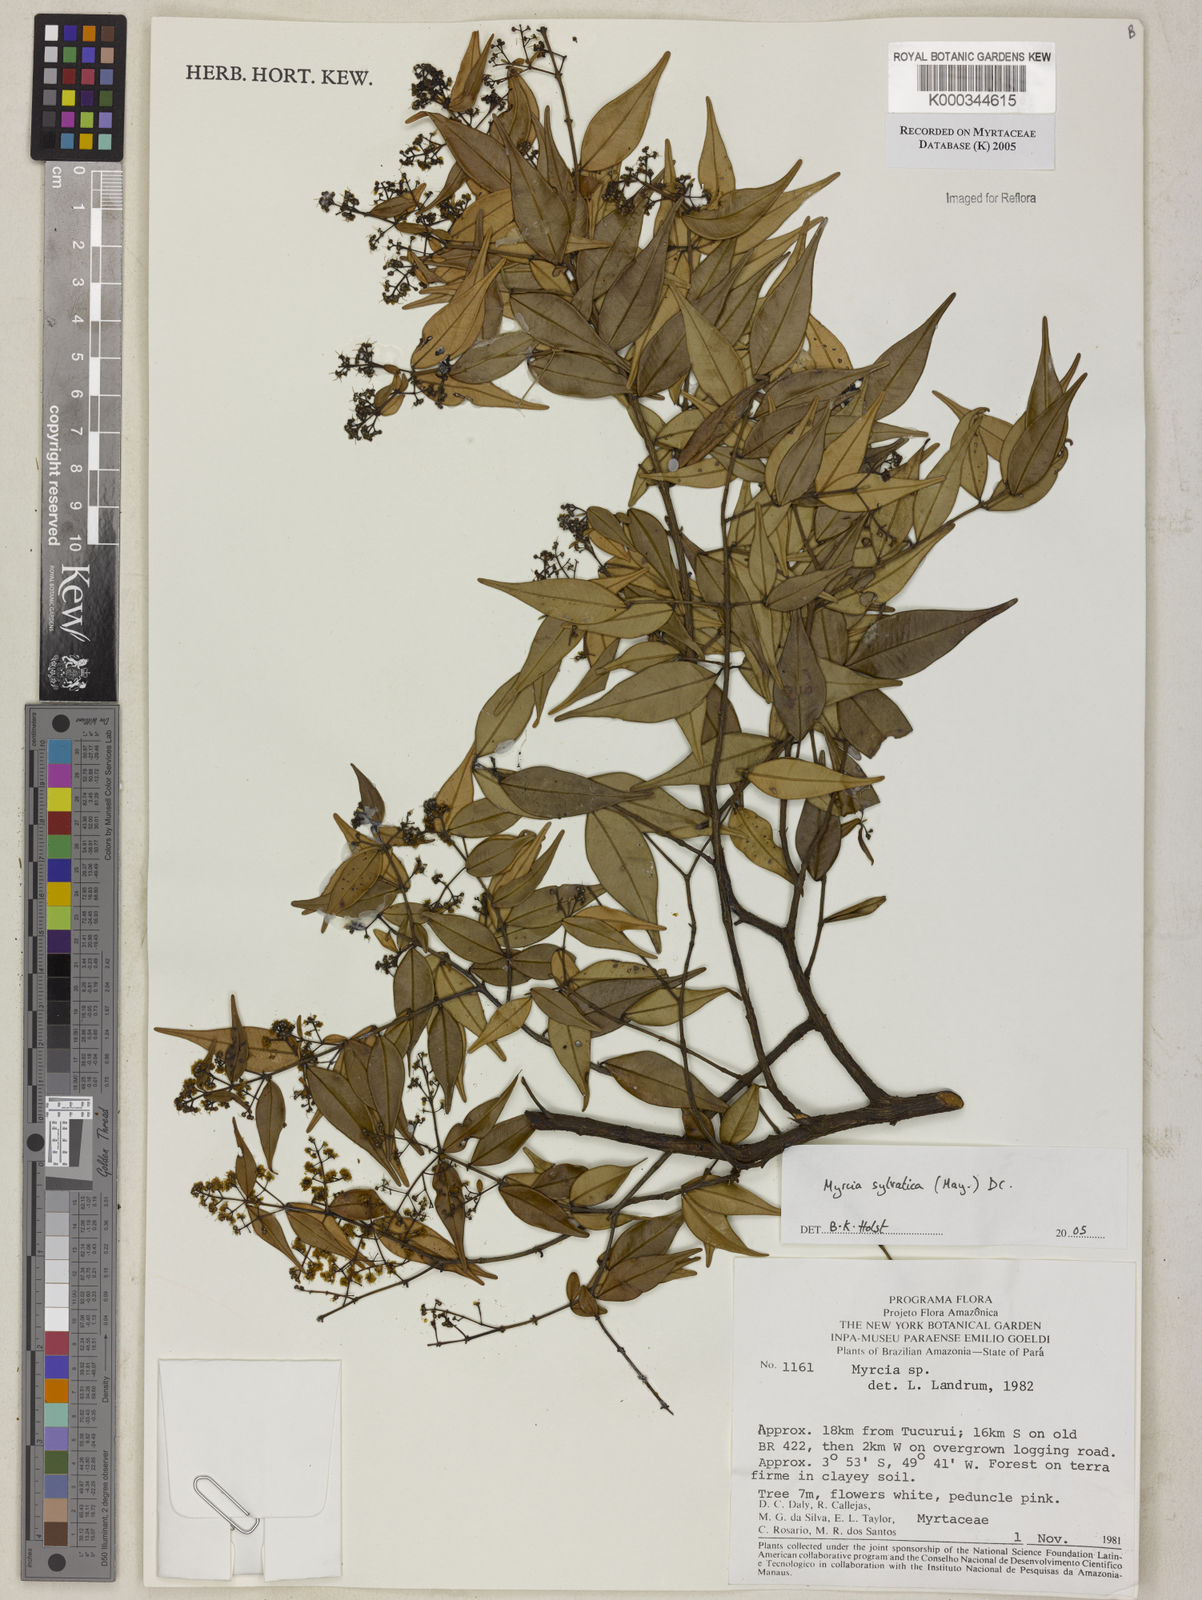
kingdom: Plantae
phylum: Tracheophyta
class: Magnoliopsida
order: Myrtales
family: Myrtaceae
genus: Myrcia
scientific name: Myrcia sylvatica
